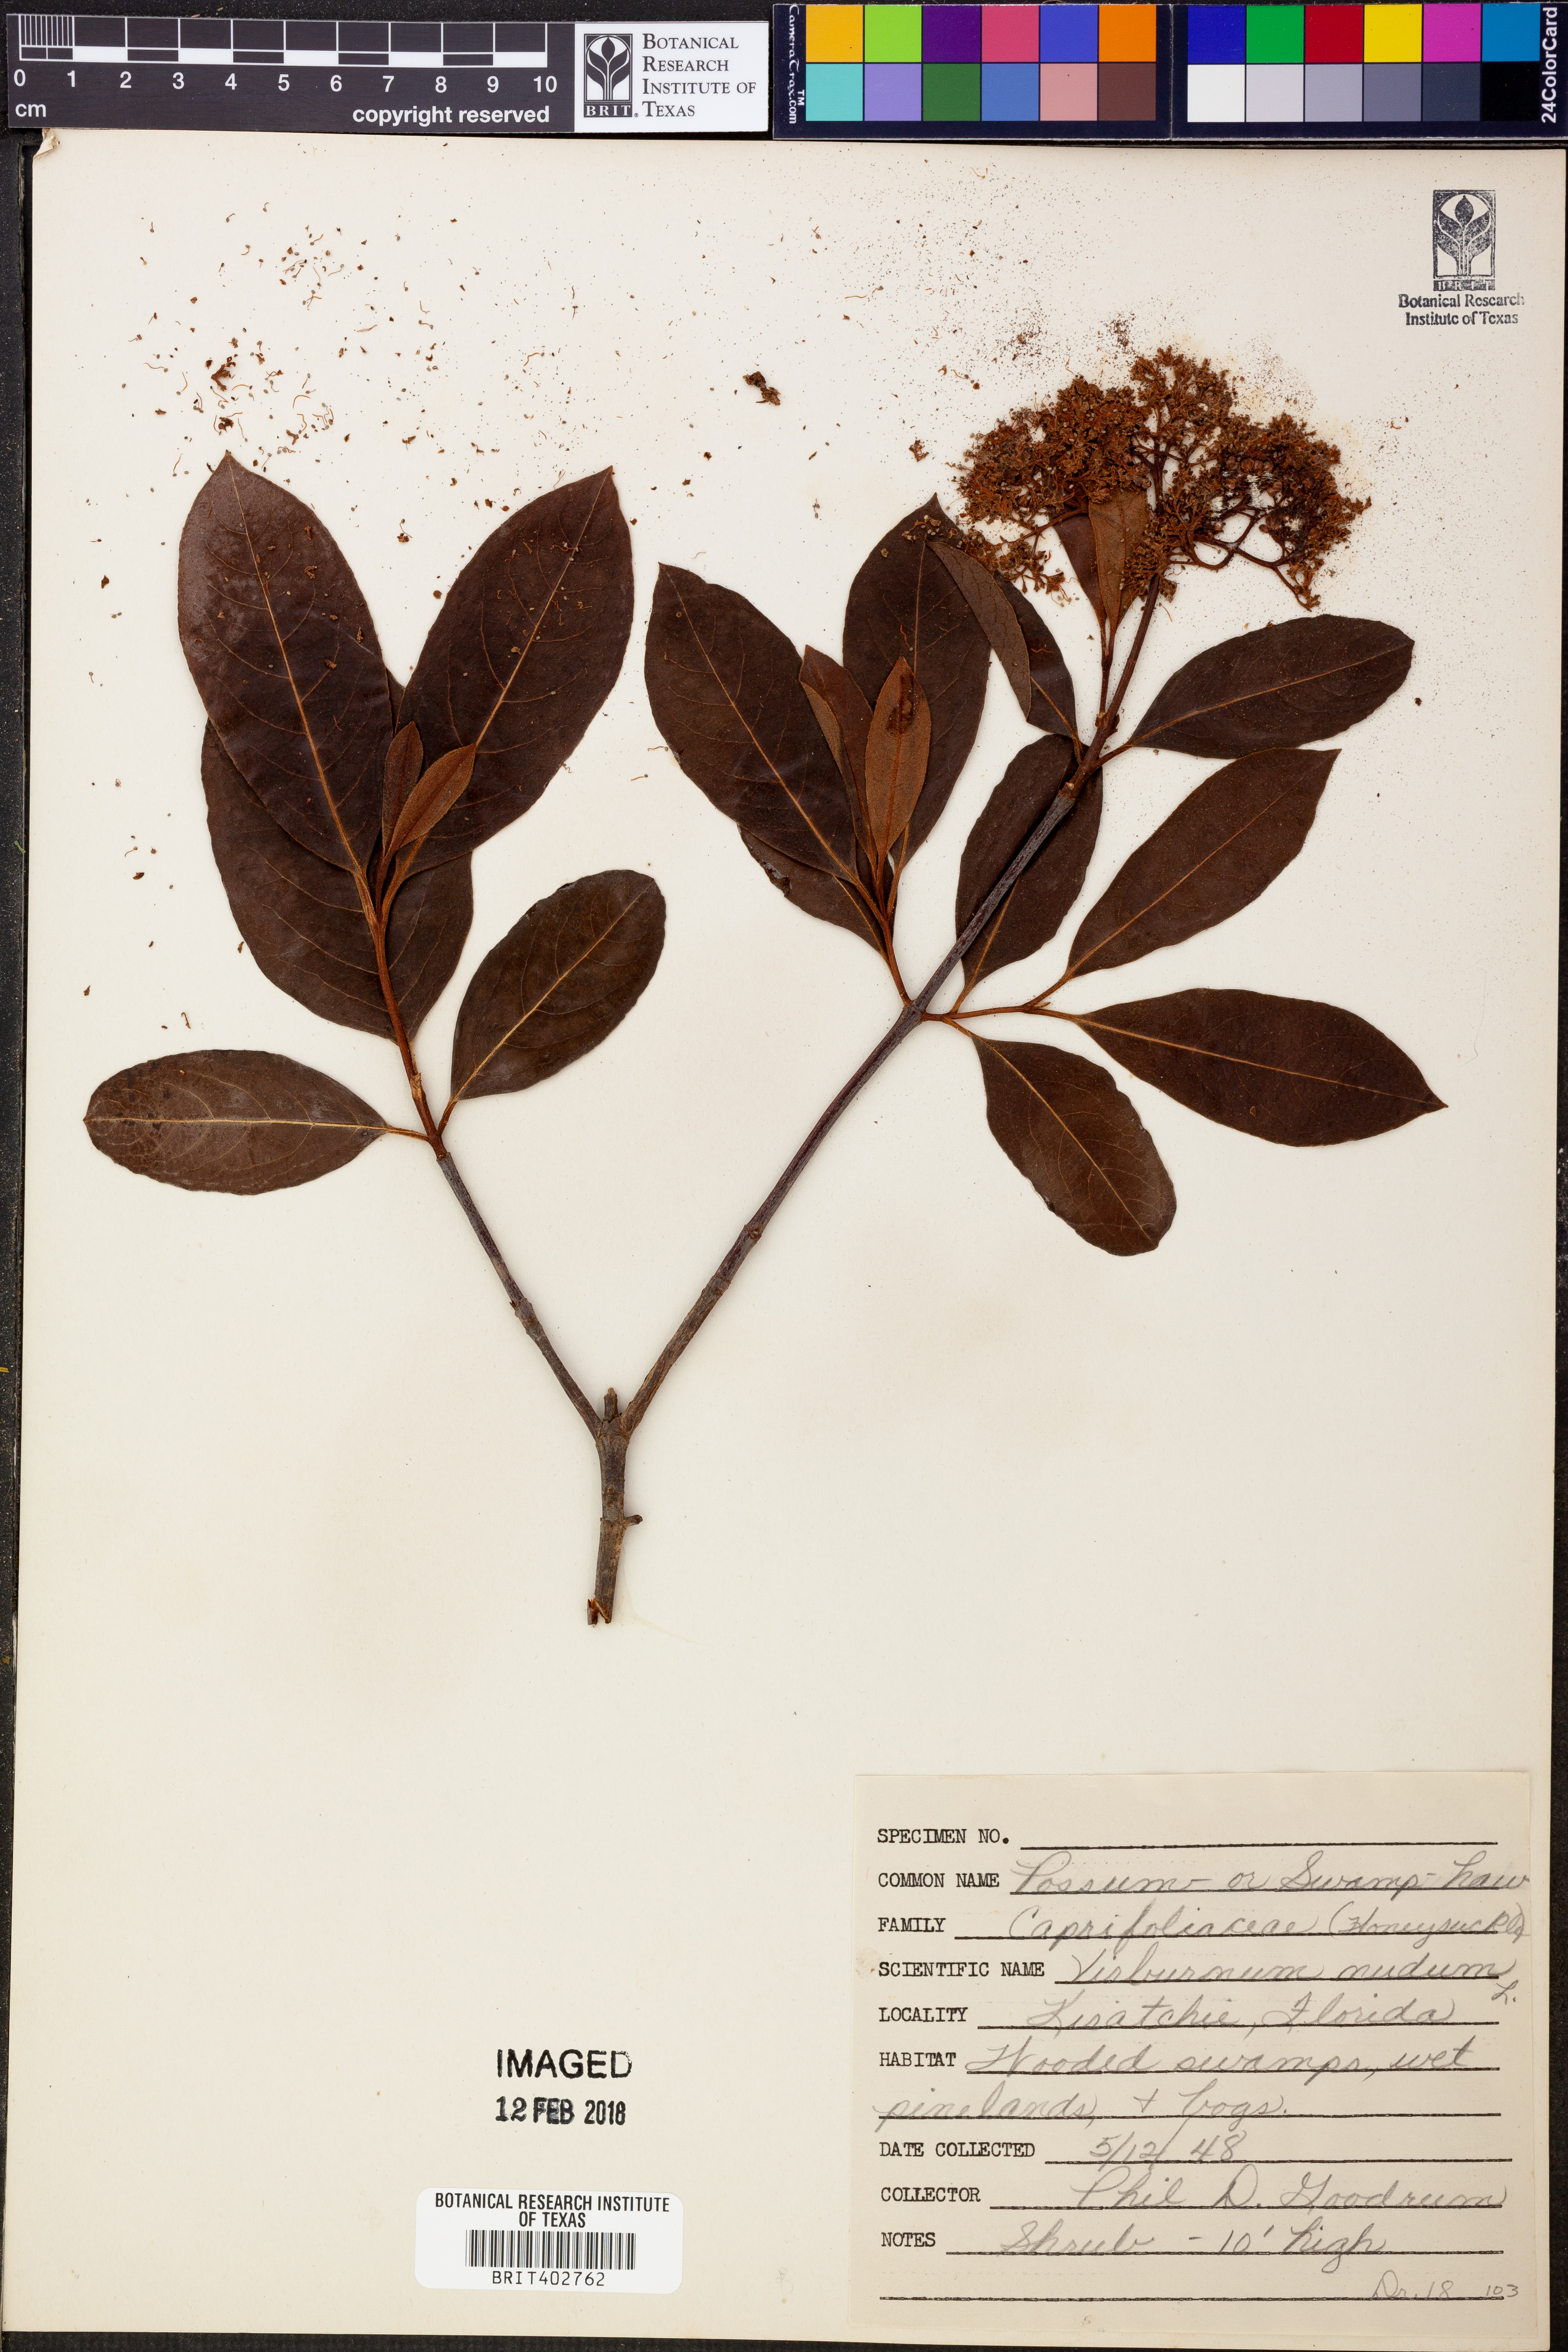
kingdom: Plantae
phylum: Tracheophyta
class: Magnoliopsida
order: Dipsacales
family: Viburnaceae
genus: Viburnum
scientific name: Viburnum nudum
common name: Possum haw
